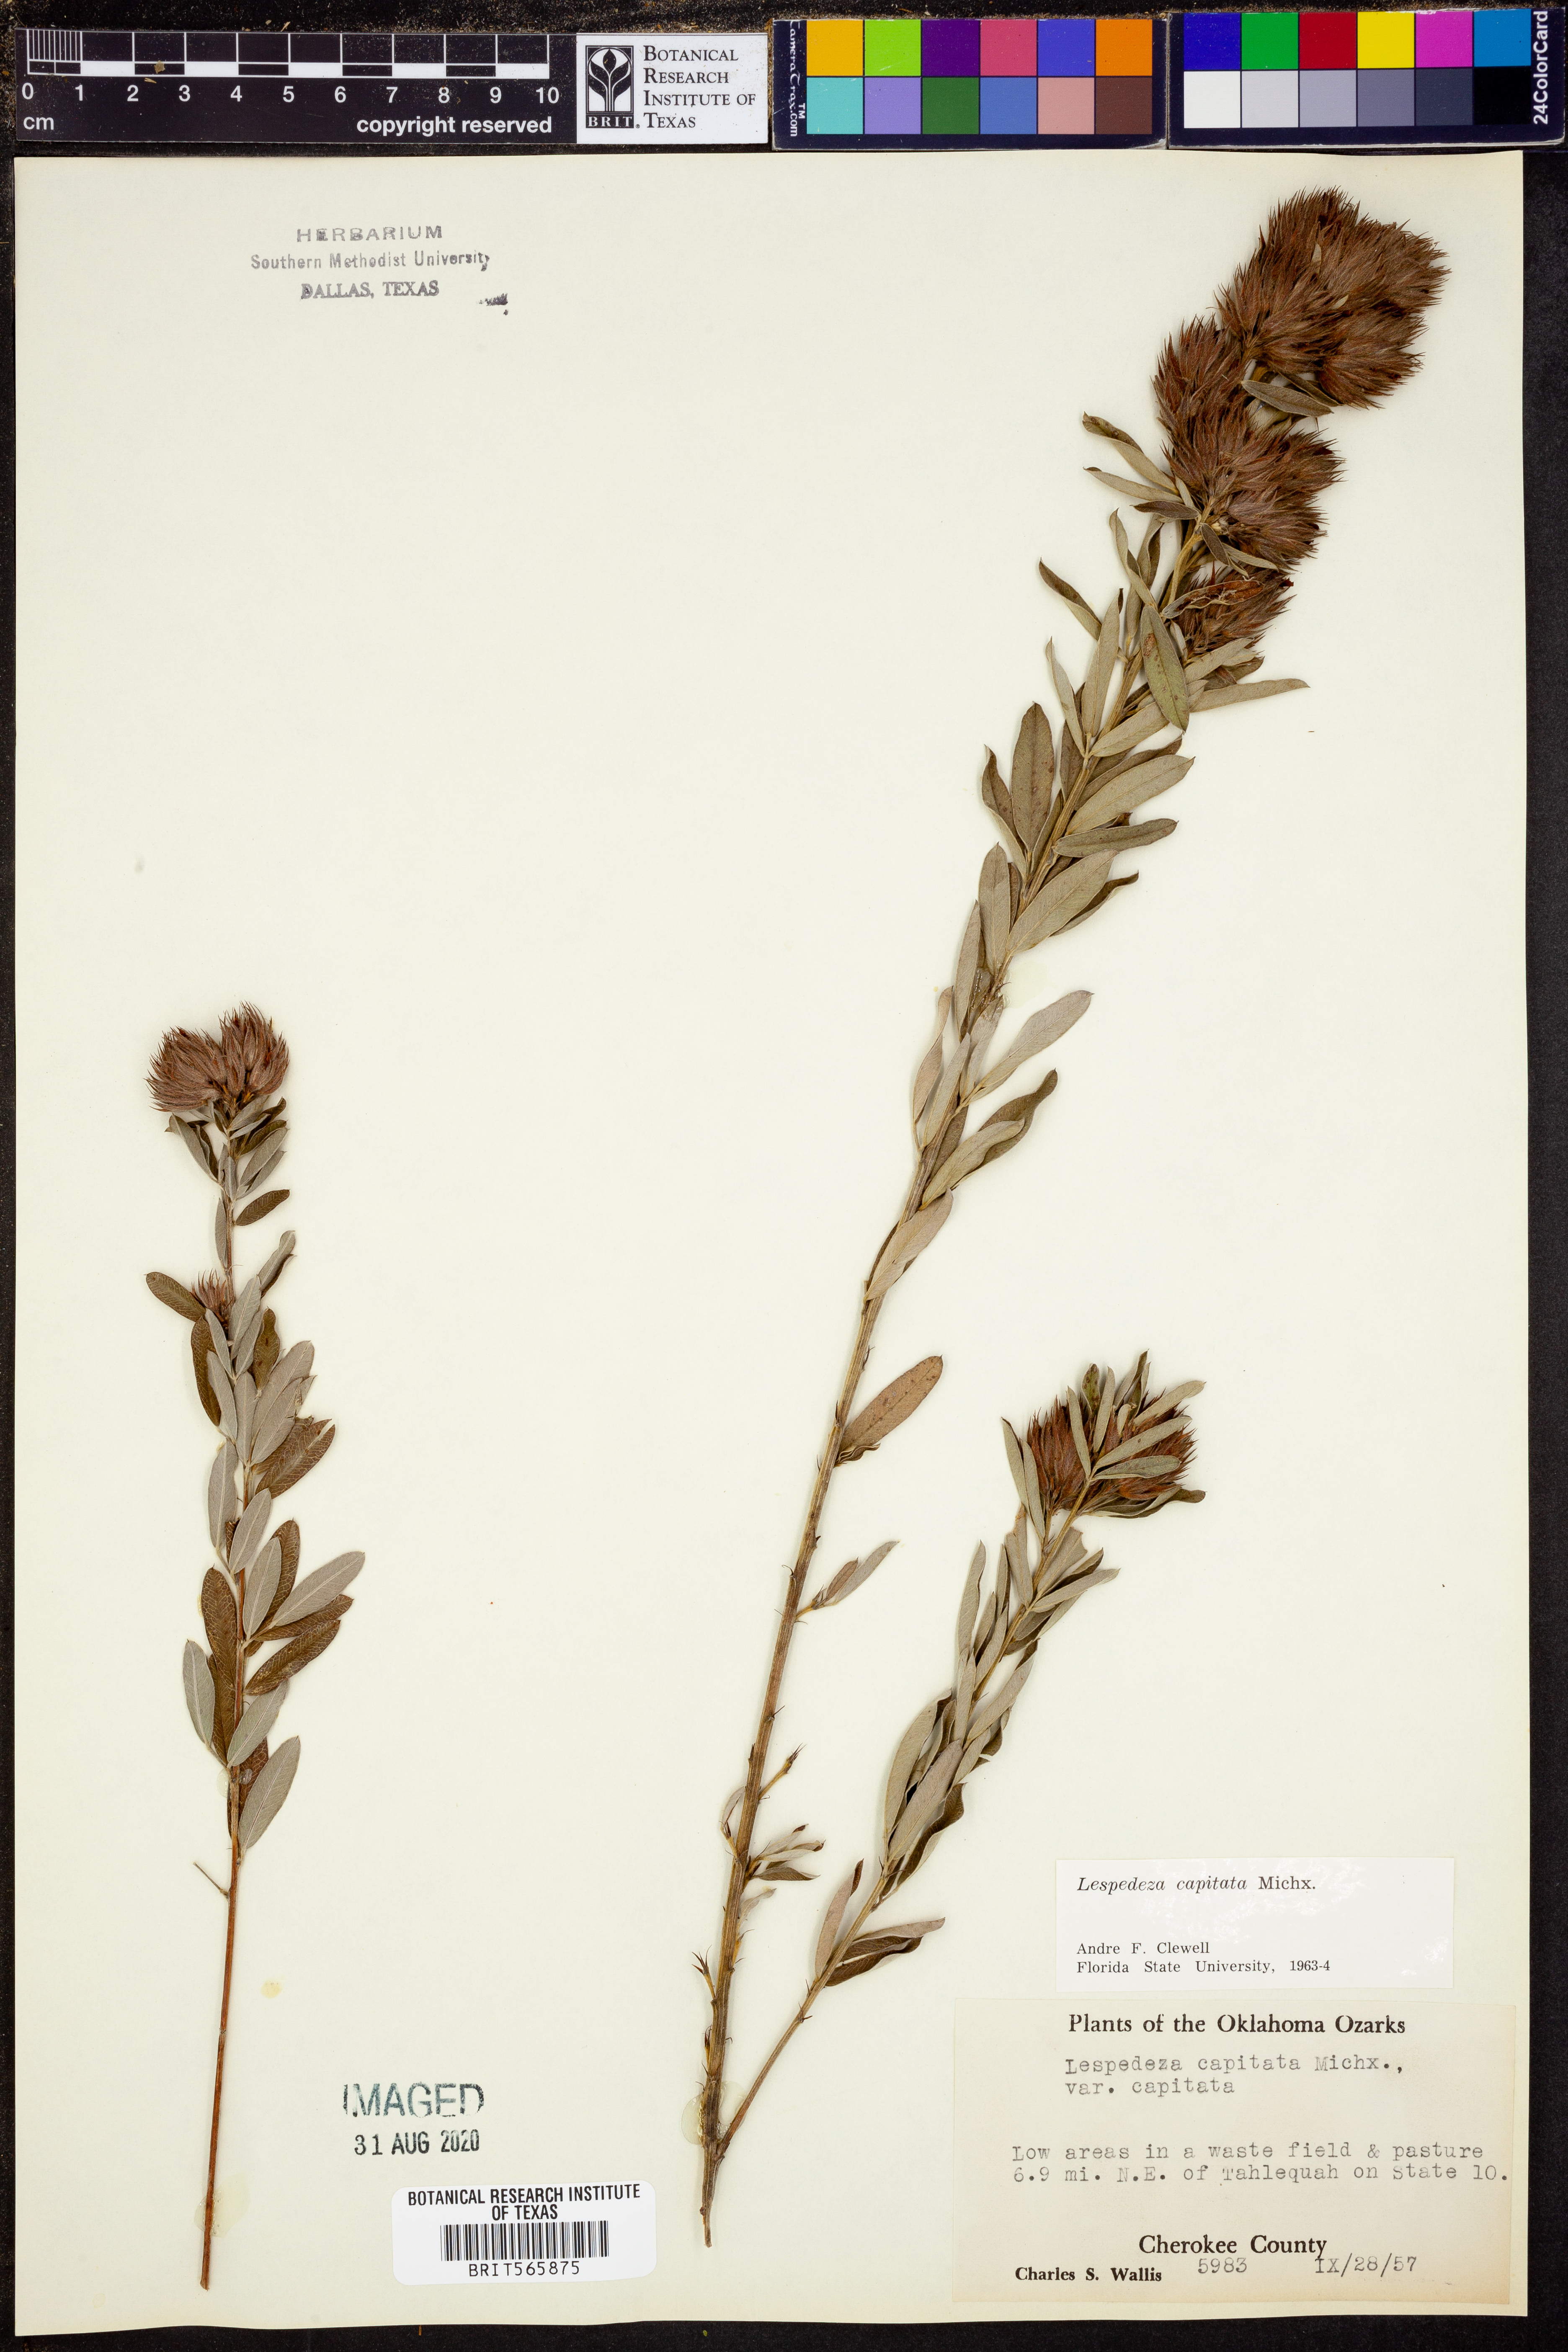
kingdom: Plantae
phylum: Tracheophyta
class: Magnoliopsida
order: Fabales
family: Fabaceae
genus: Lespedeza
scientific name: Lespedeza capitata
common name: Dusty clover
